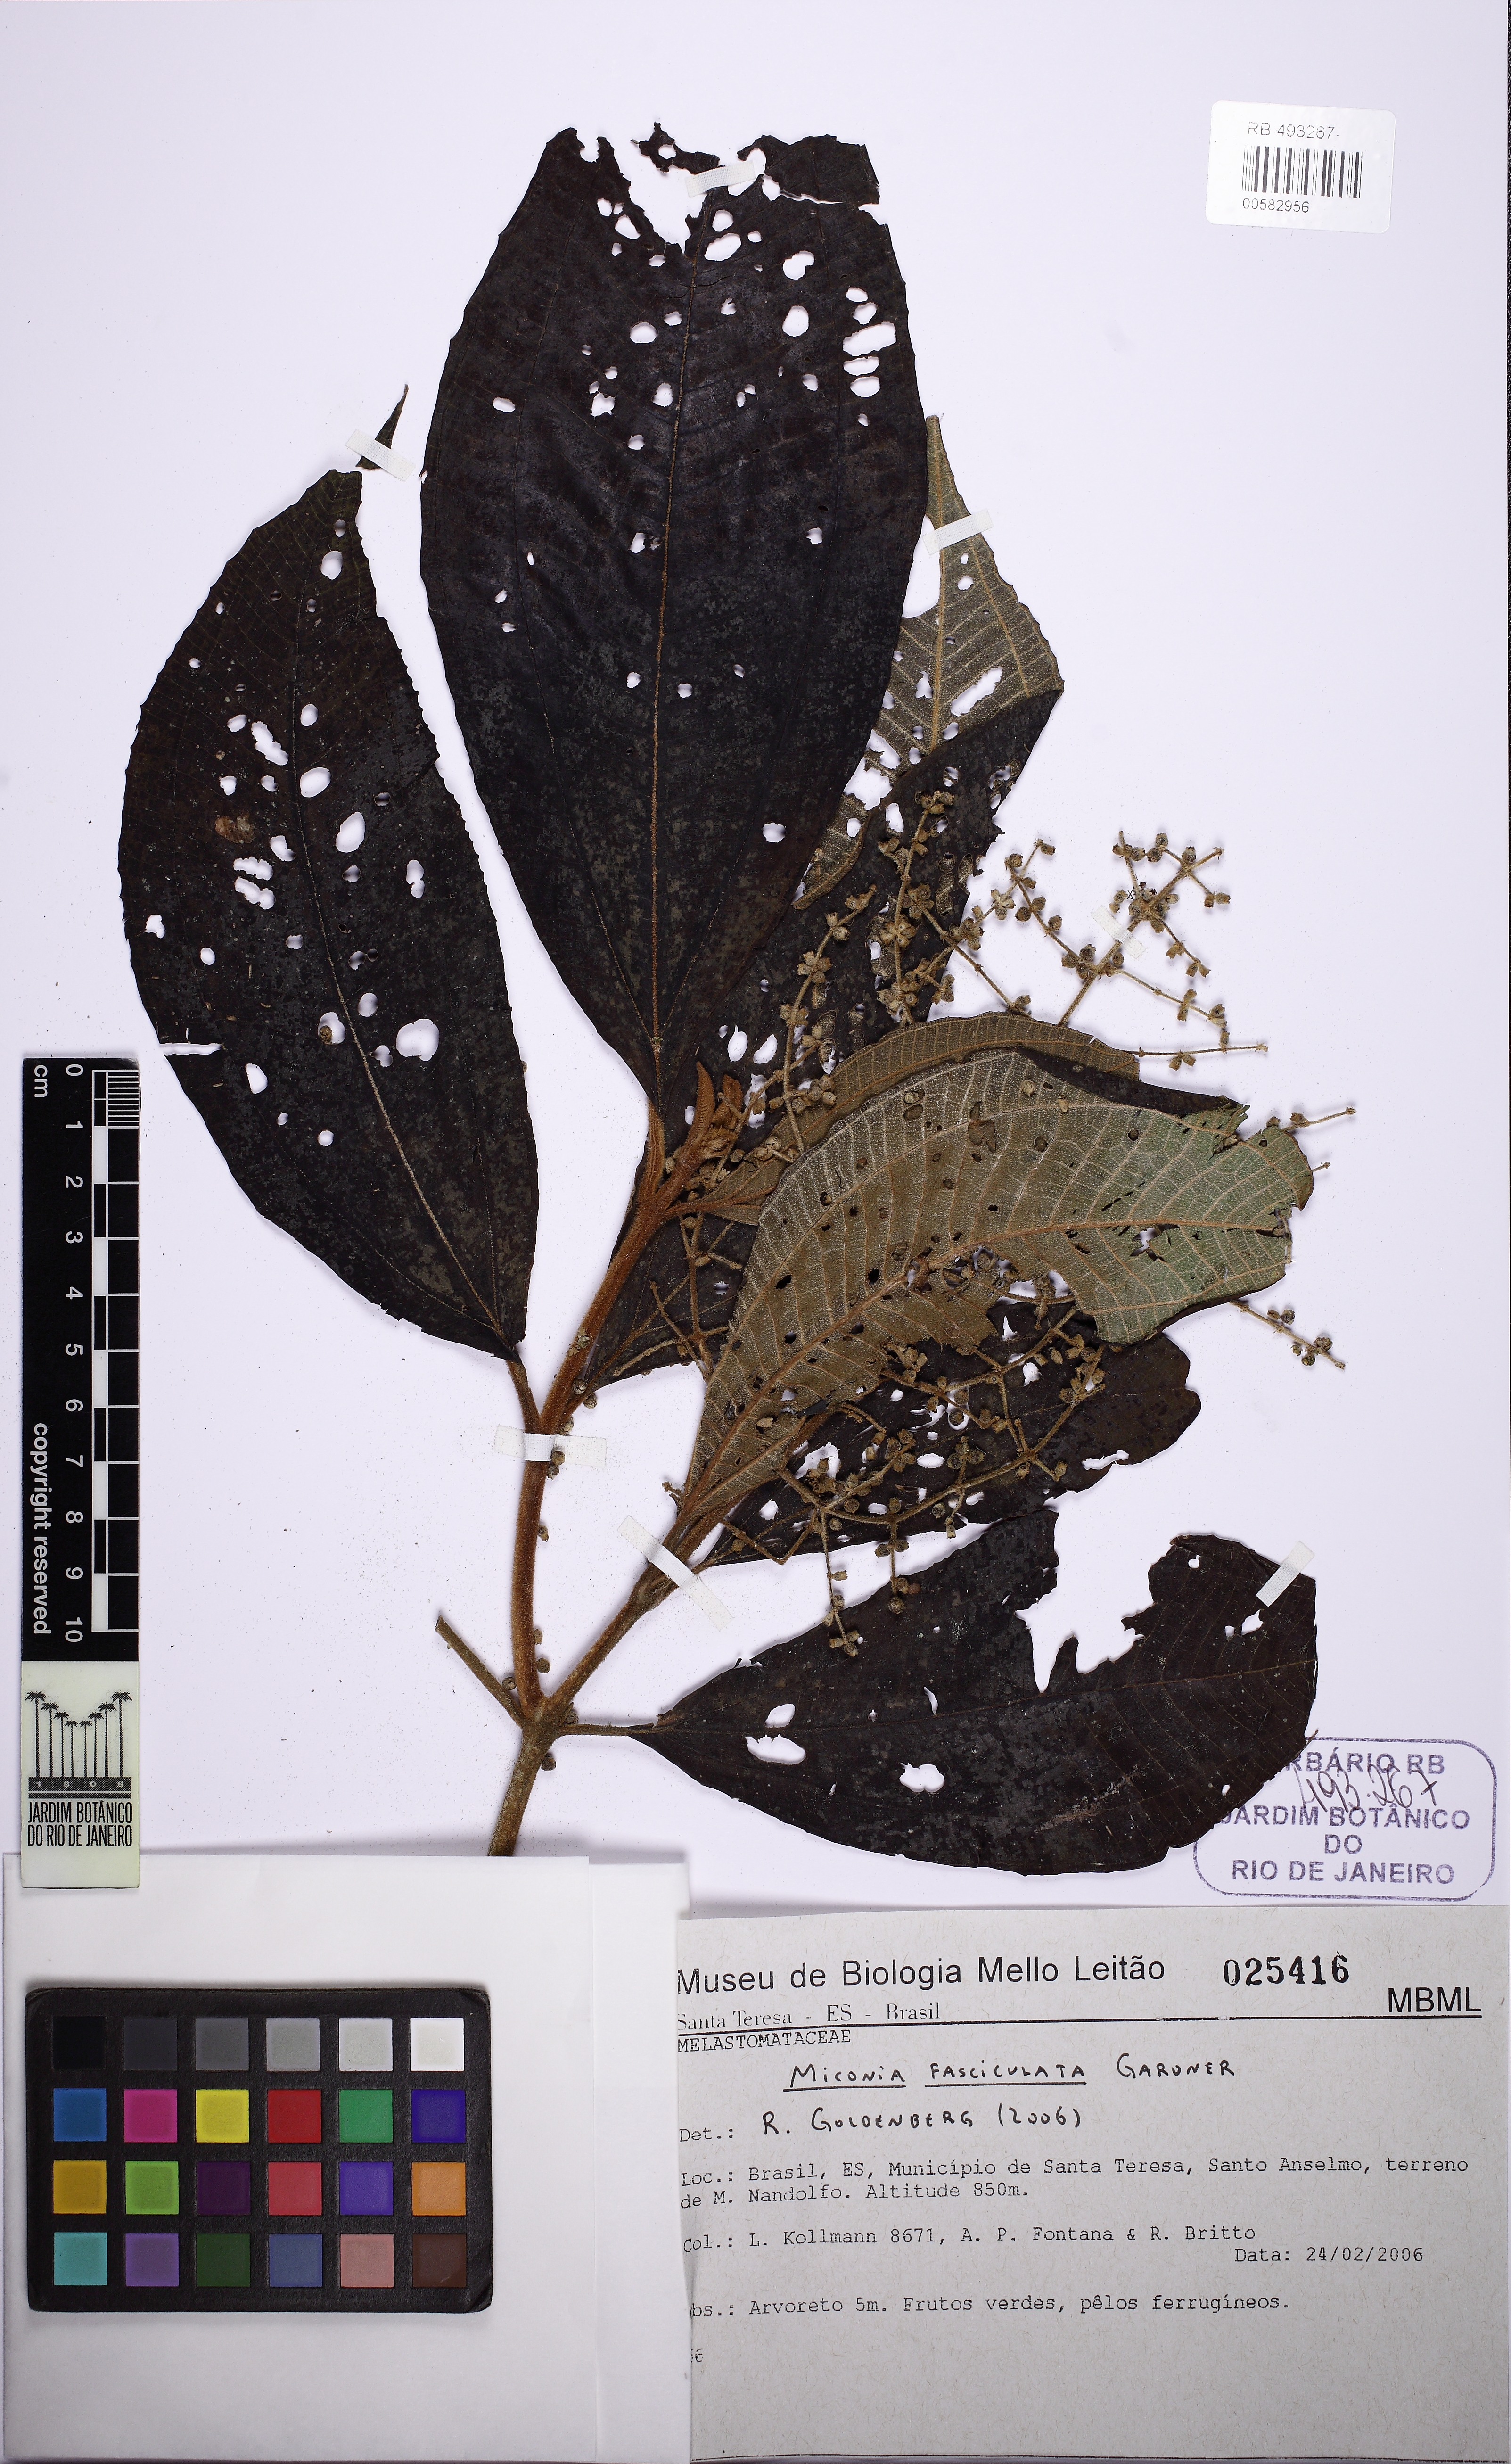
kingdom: Plantae
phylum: Tracheophyta
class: Magnoliopsida
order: Myrtales
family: Melastomataceae
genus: Miconia
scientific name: Miconia fasciculata
